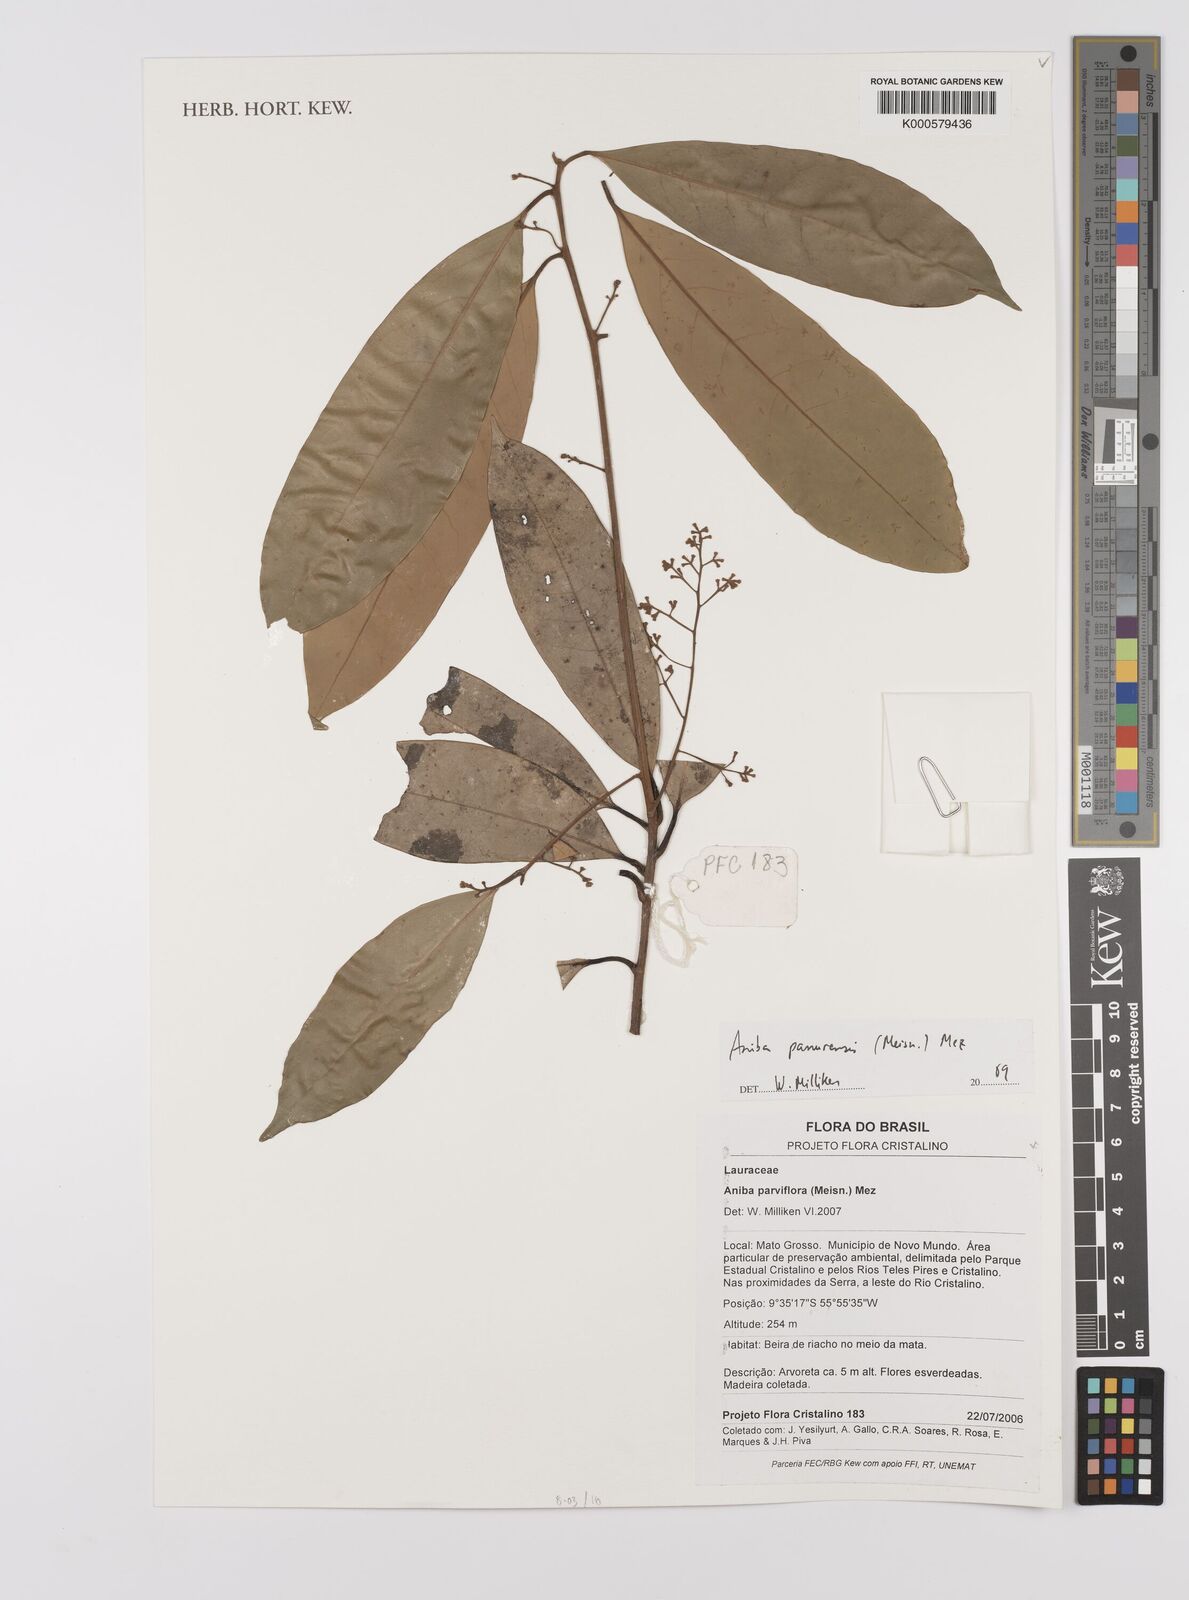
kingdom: Plantae
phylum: Tracheophyta
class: Magnoliopsida
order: Laurales
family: Lauraceae
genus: Aniba
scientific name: Aniba panurensis
